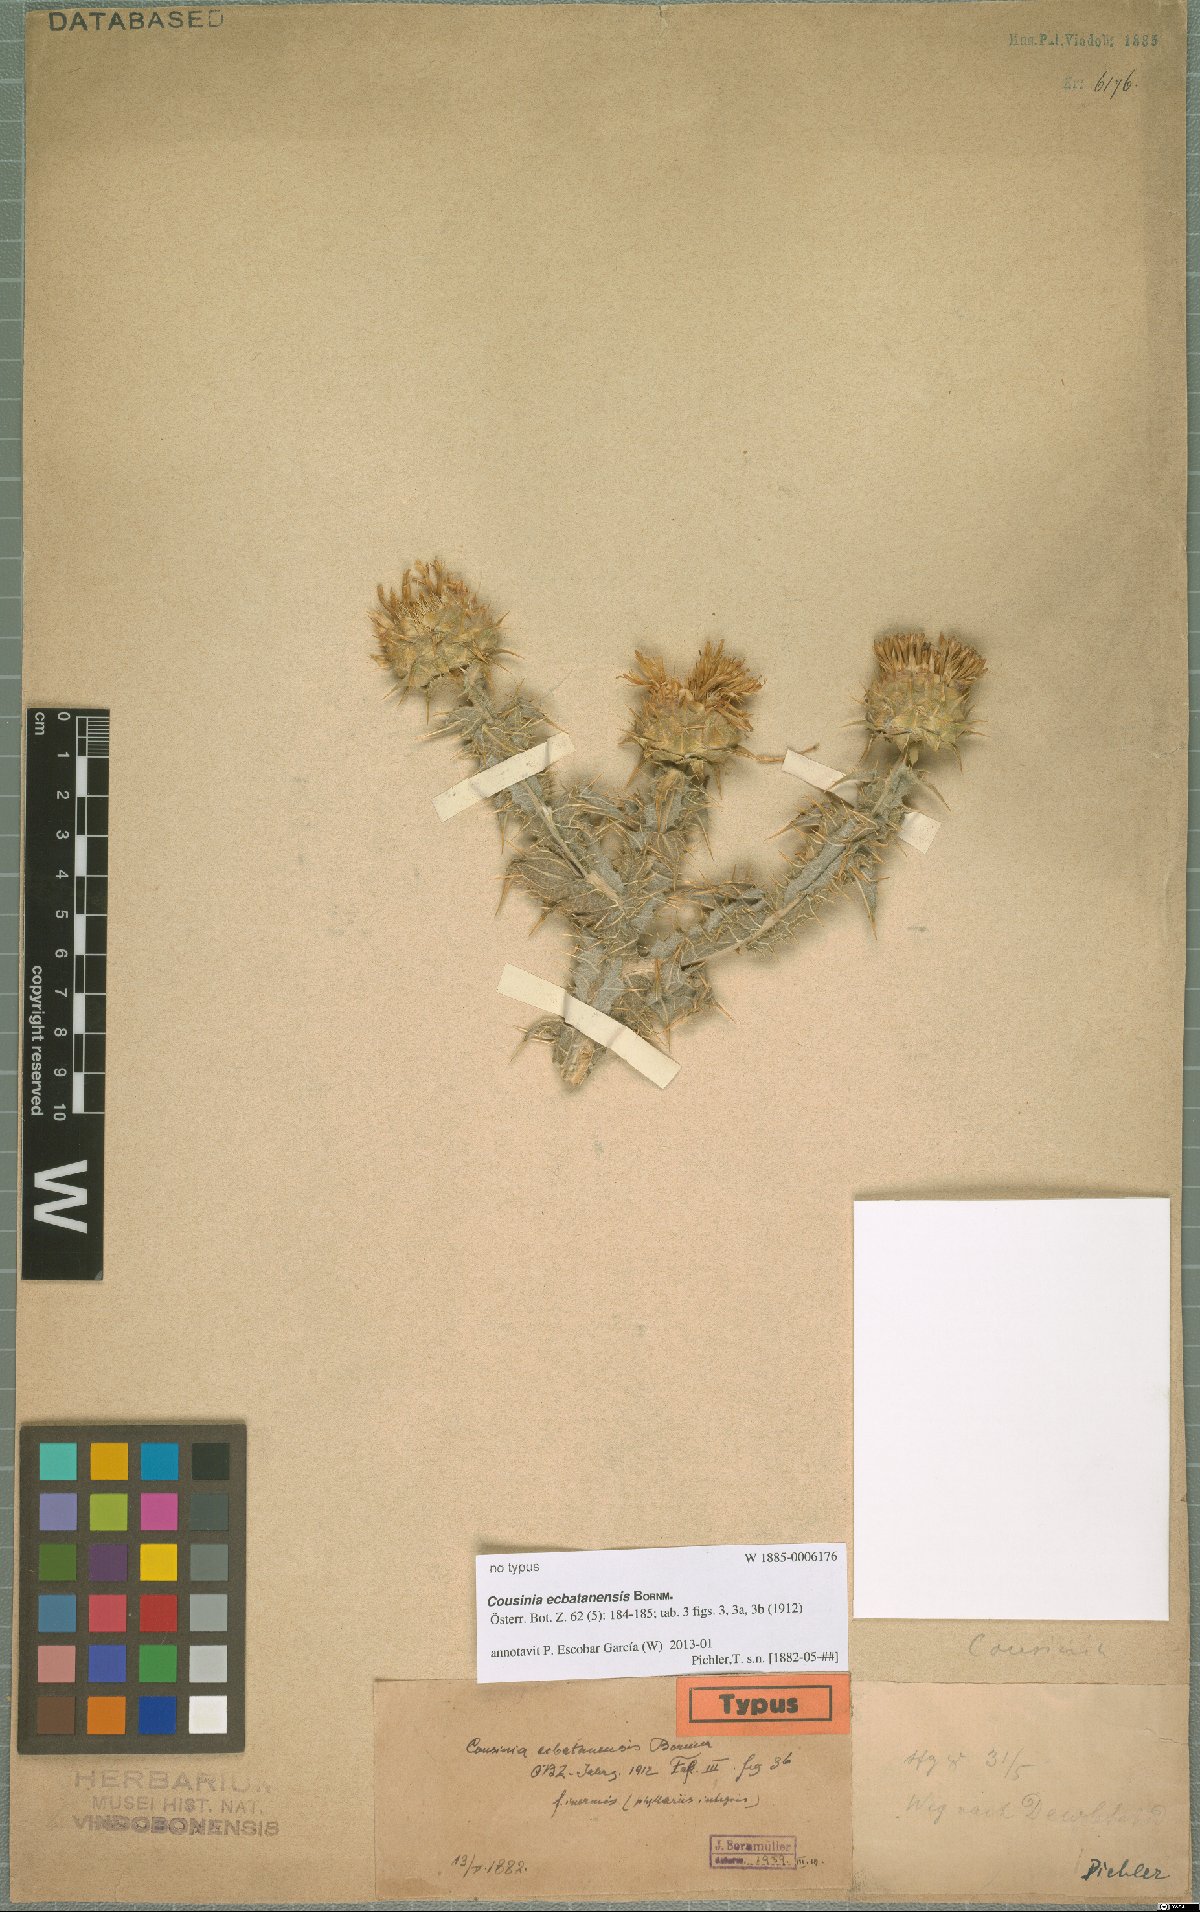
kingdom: Plantae
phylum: Tracheophyta
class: Magnoliopsida
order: Asterales
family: Asteraceae
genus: Cousinia
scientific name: Cousinia ecbatanensis
